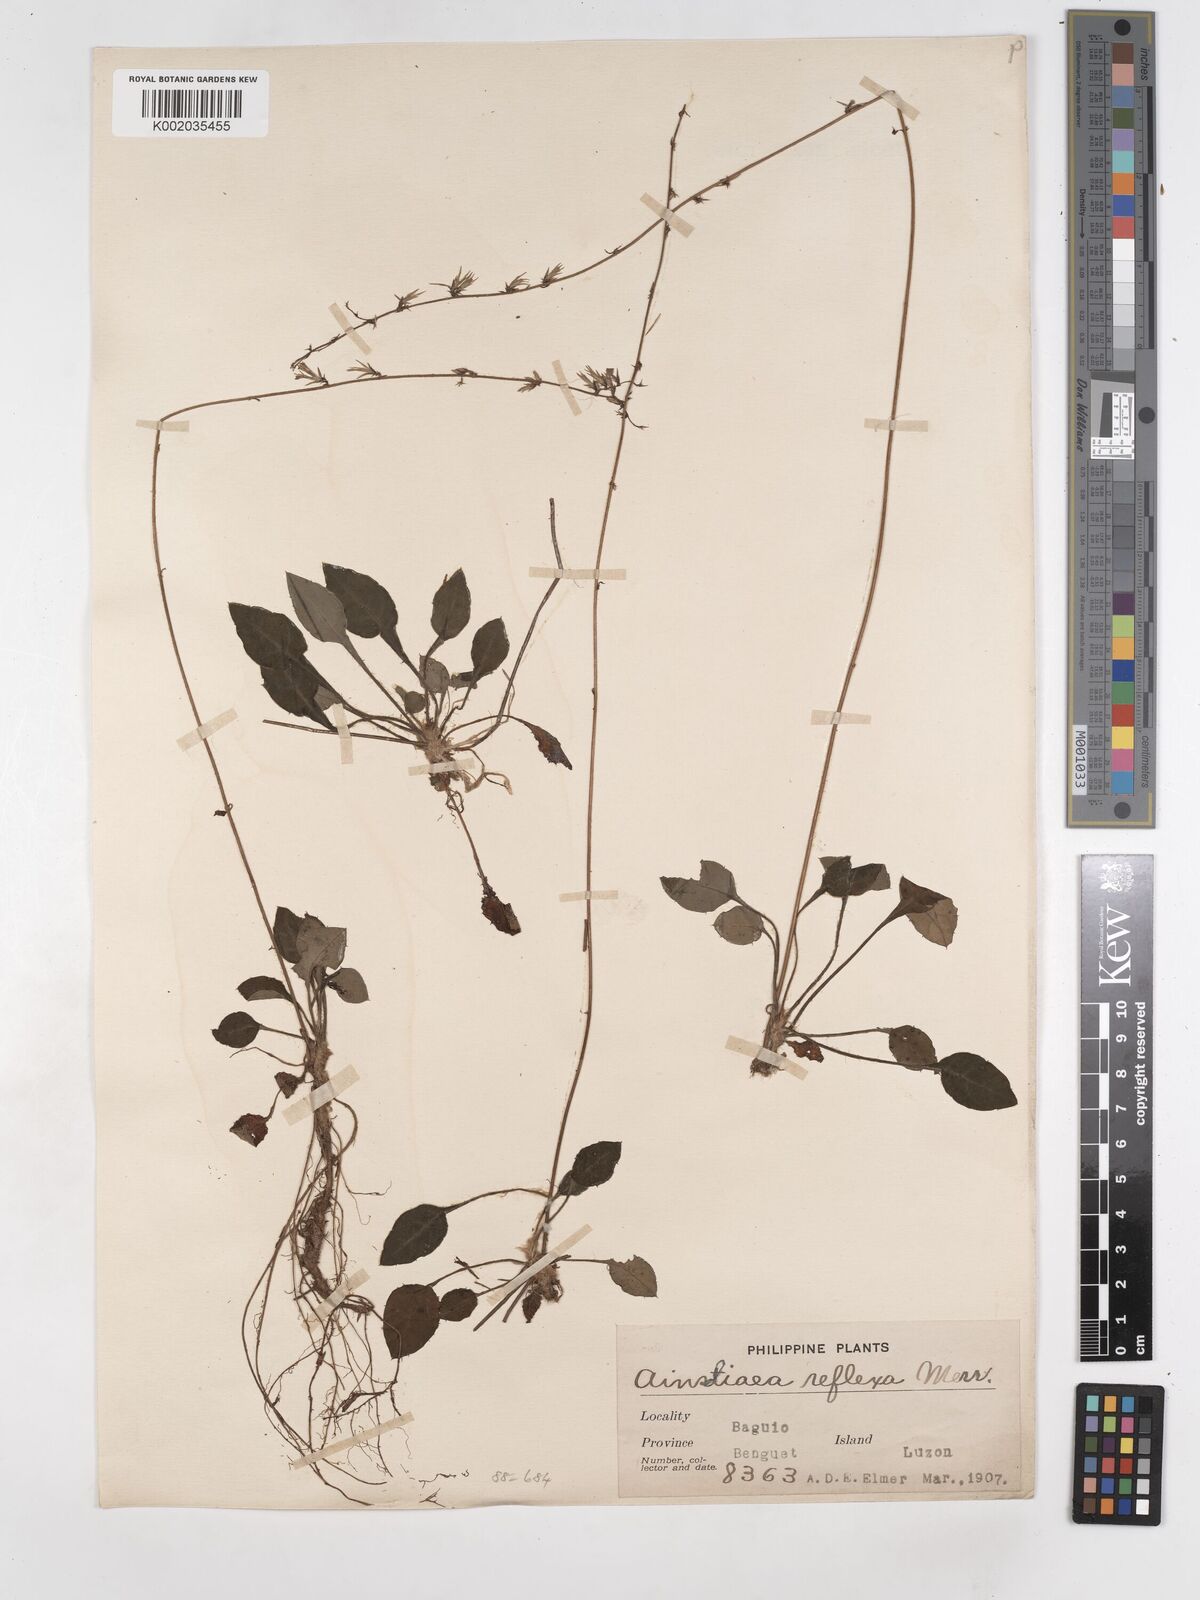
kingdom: Plantae
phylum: Tracheophyta
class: Magnoliopsida
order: Asterales
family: Asteraceae
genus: Ainsliaea
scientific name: Ainsliaea reflexa
